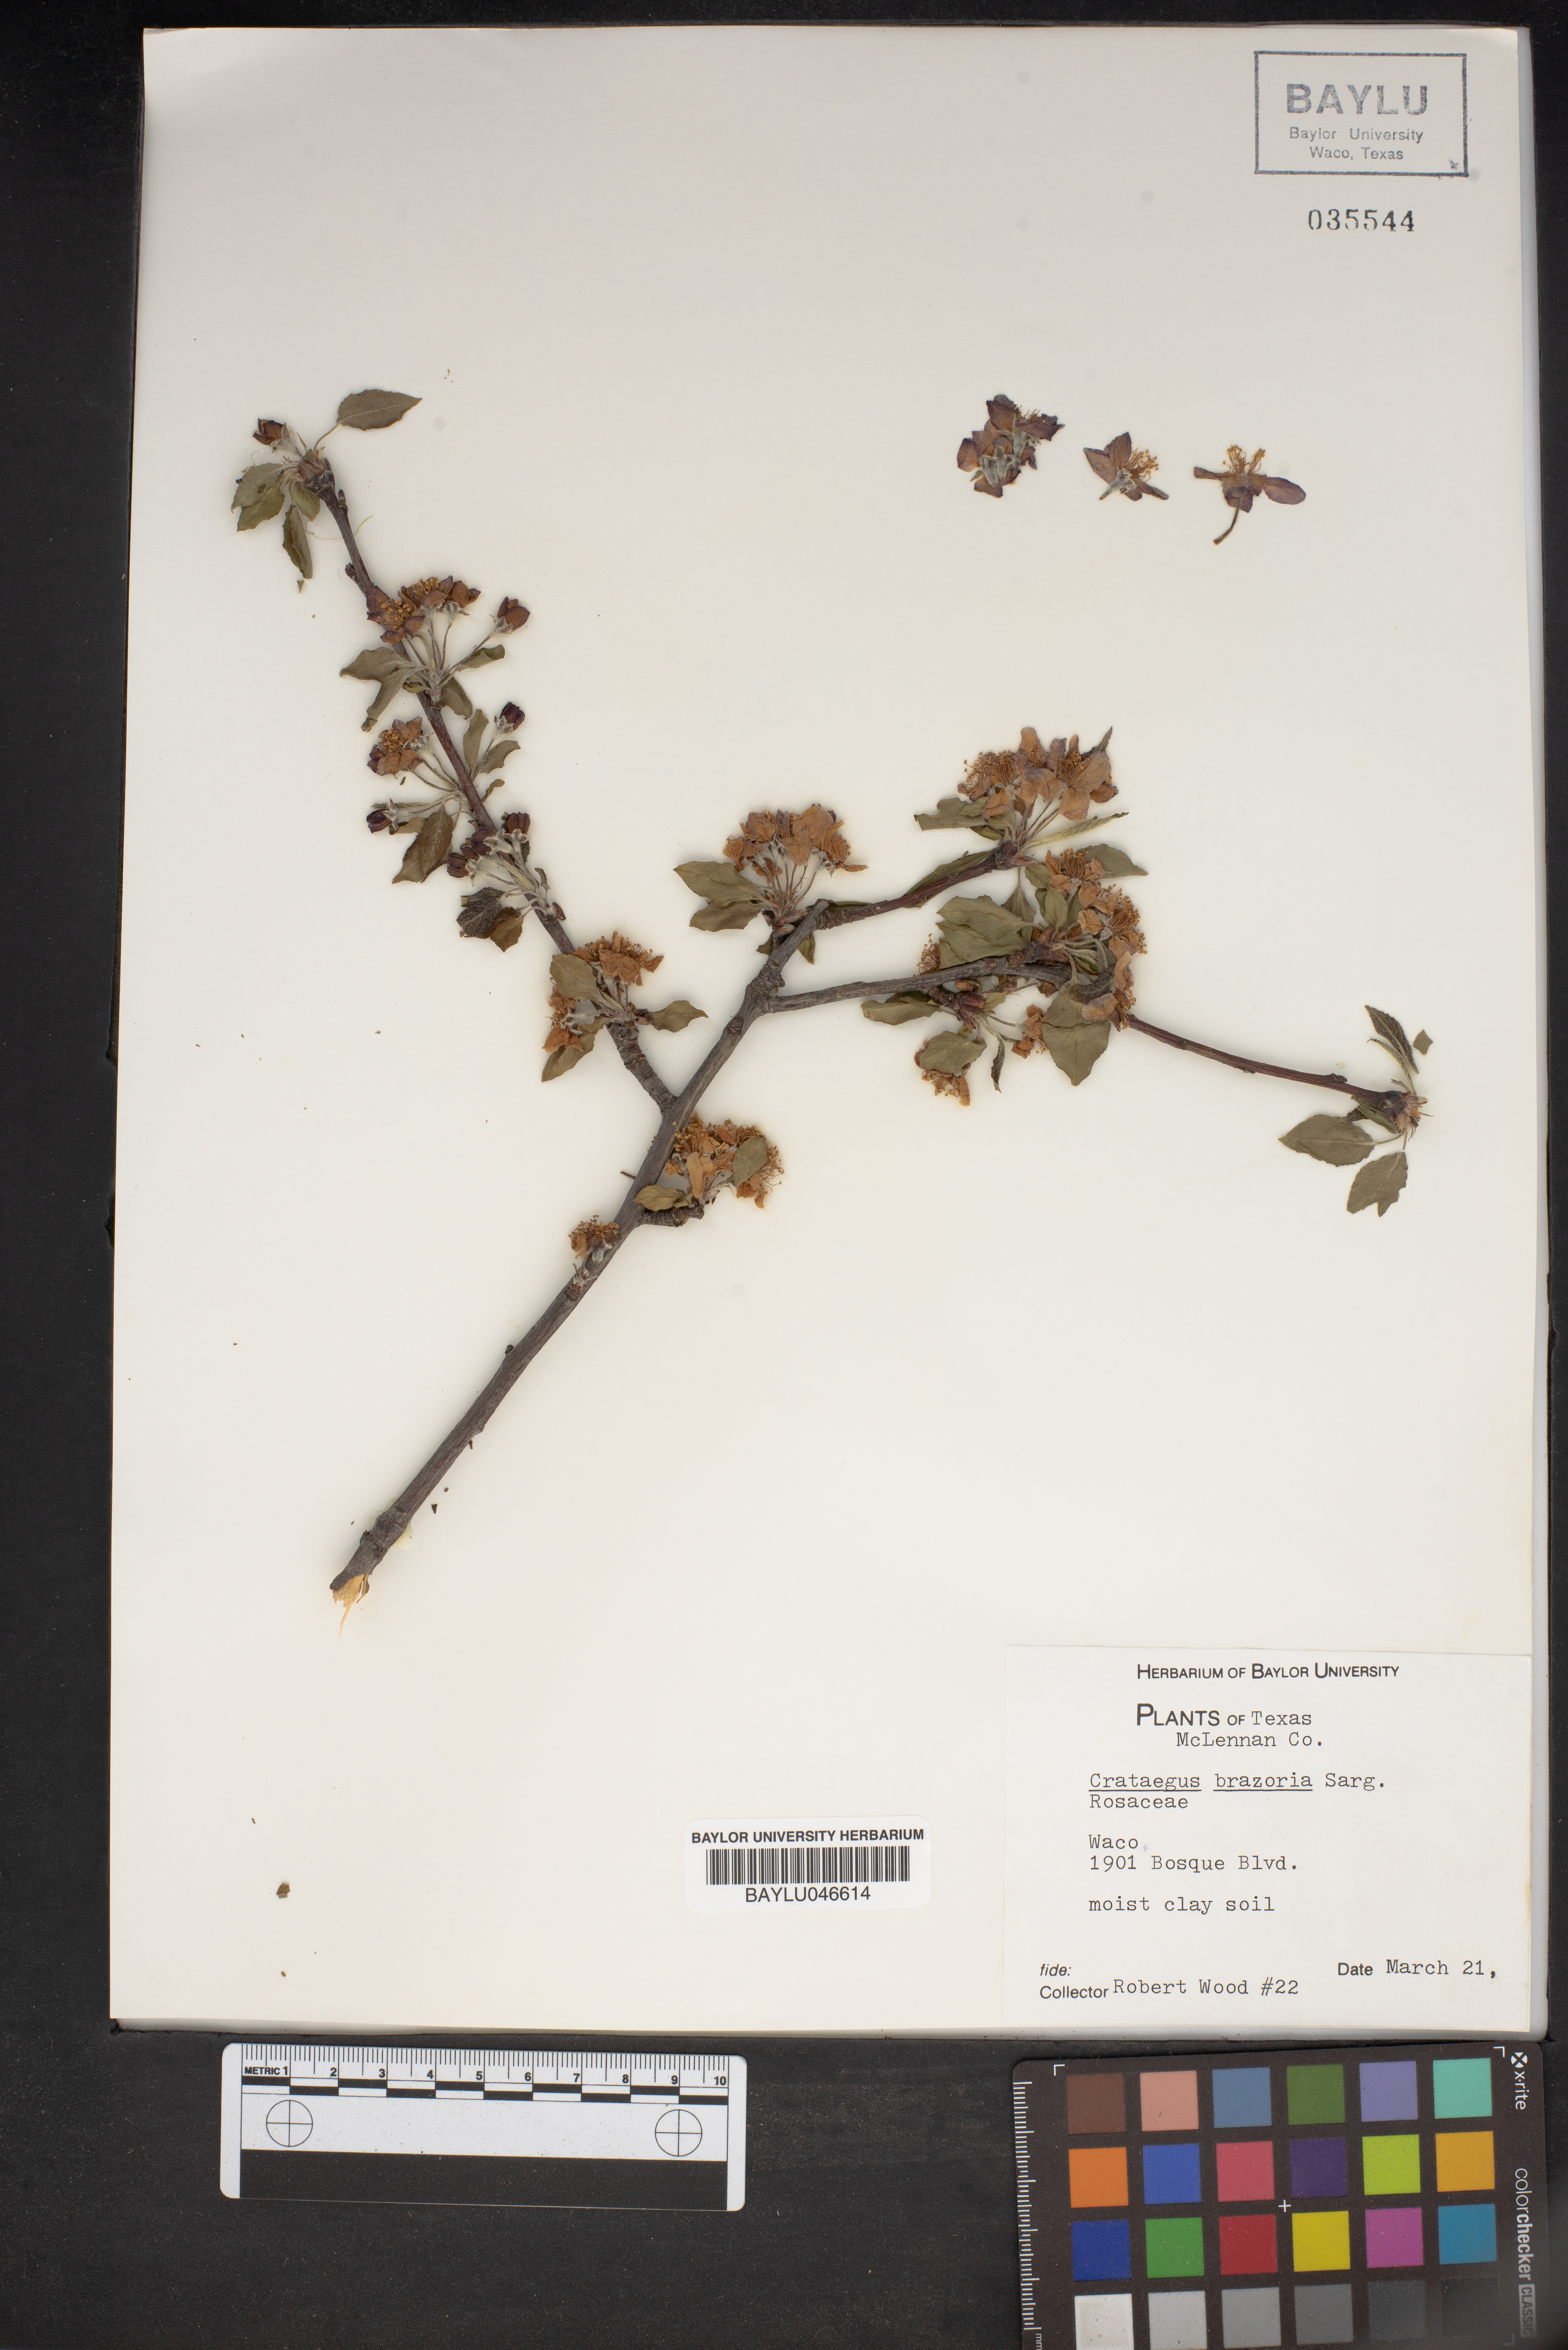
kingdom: Plantae
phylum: Tracheophyta
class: Magnoliopsida
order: Rosales
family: Rosaceae
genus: Crataegus
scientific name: Crataegus brazoria
